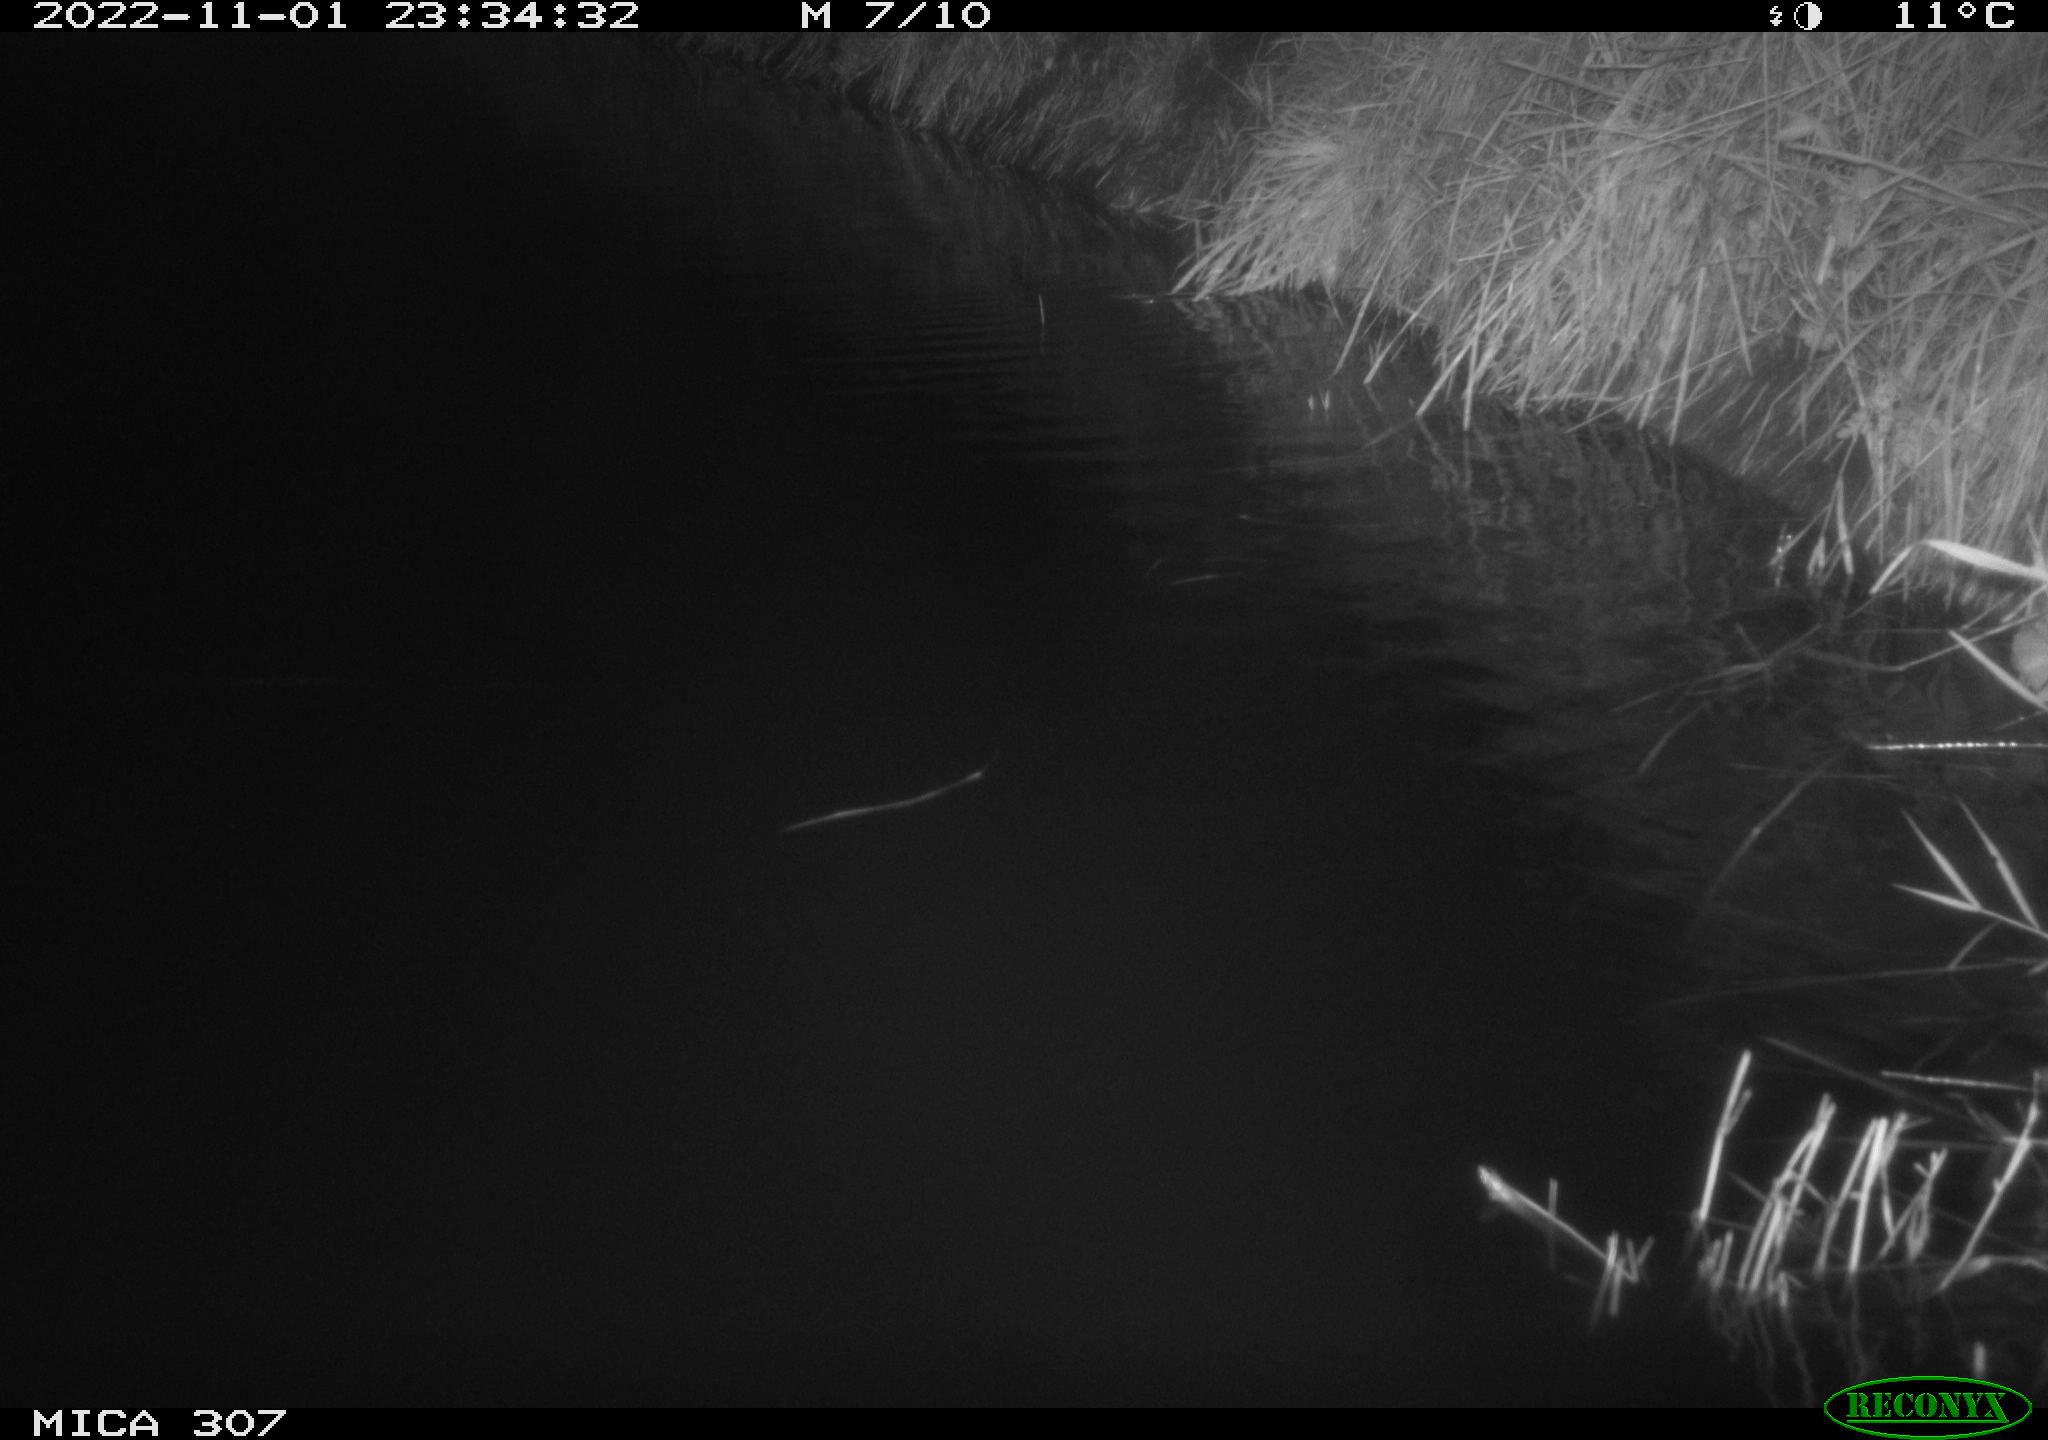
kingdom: Animalia
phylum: Chordata
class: Mammalia
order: Rodentia
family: Cricetidae
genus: Ondatra
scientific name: Ondatra zibethicus
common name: Muskrat
